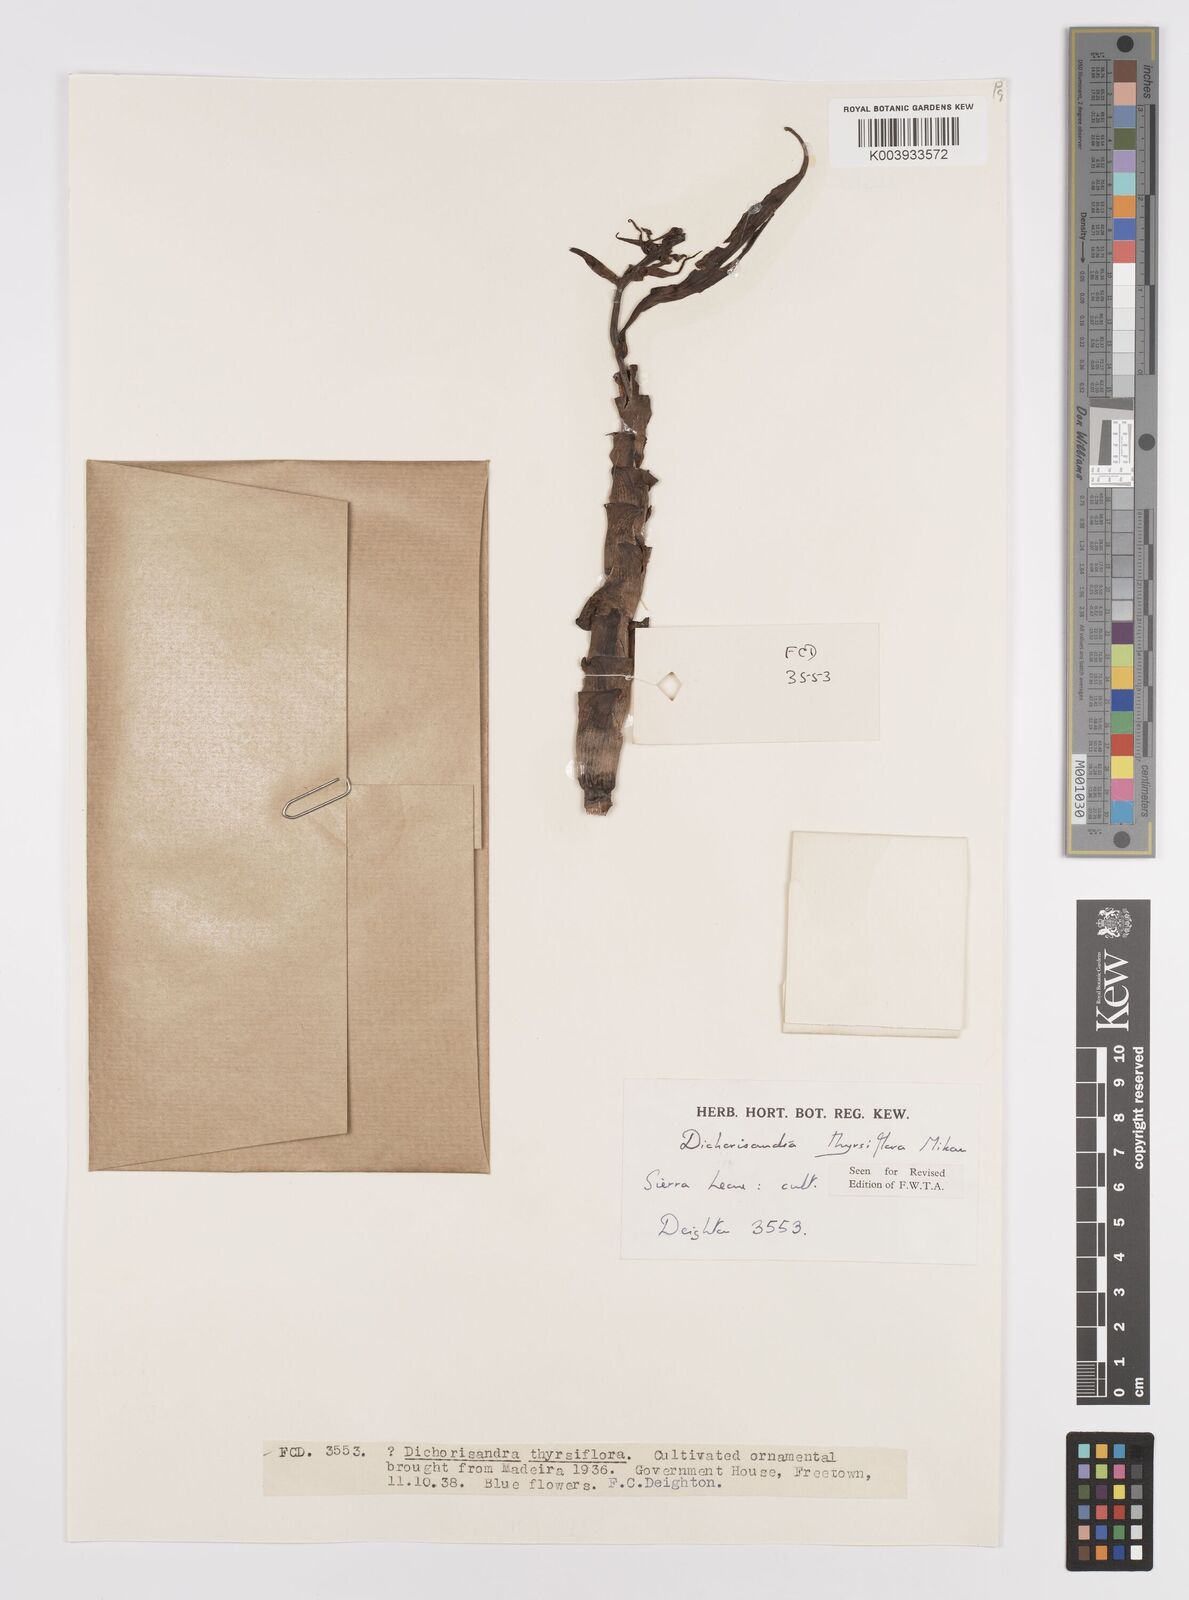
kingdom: Plantae
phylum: Tracheophyta
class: Liliopsida
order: Commelinales
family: Commelinaceae
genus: Dichorisandra
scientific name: Dichorisandra thyrsiflora
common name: Blue-ginger
